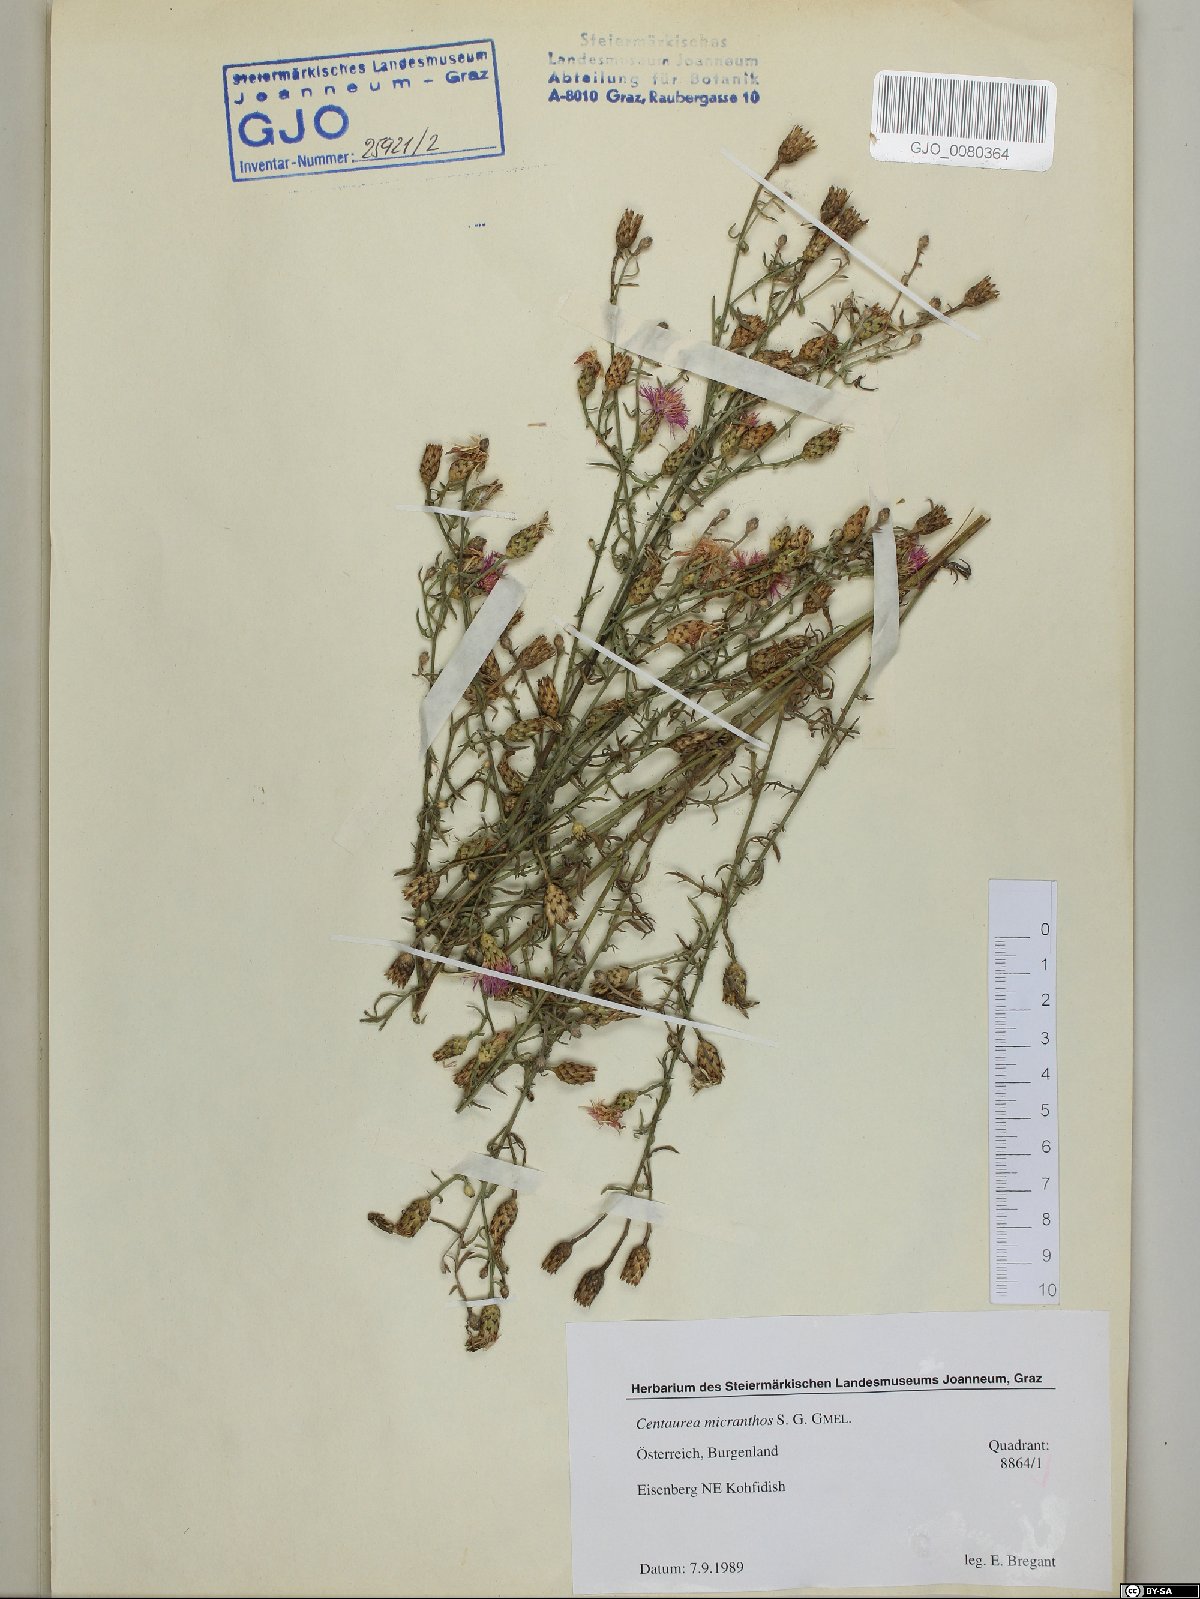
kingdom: Plantae
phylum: Tracheophyta
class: Magnoliopsida
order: Asterales
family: Asteraceae
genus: Centaurea
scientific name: Centaurea micranthos
